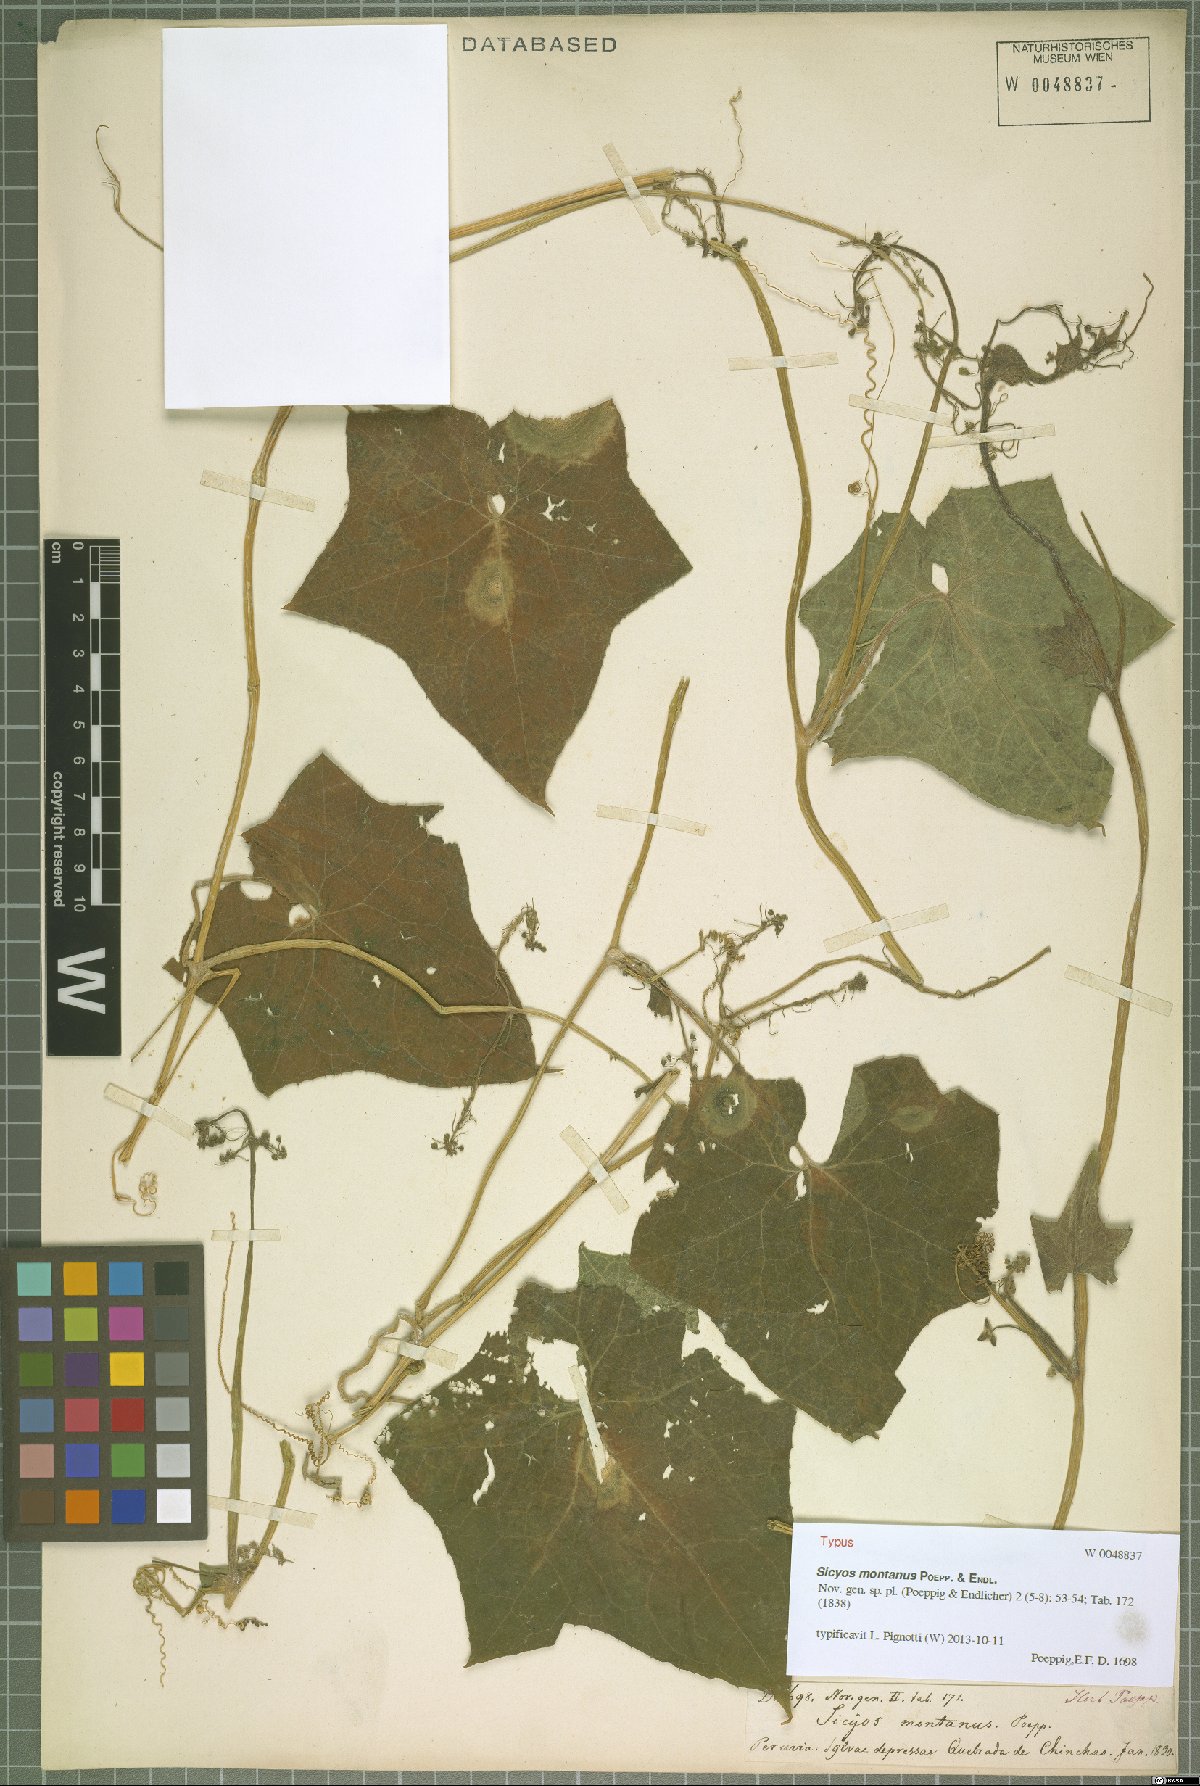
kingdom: Plantae
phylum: Tracheophyta
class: Magnoliopsida
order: Cucurbitales
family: Cucurbitaceae
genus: Sicyos
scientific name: Sicyos montanus
